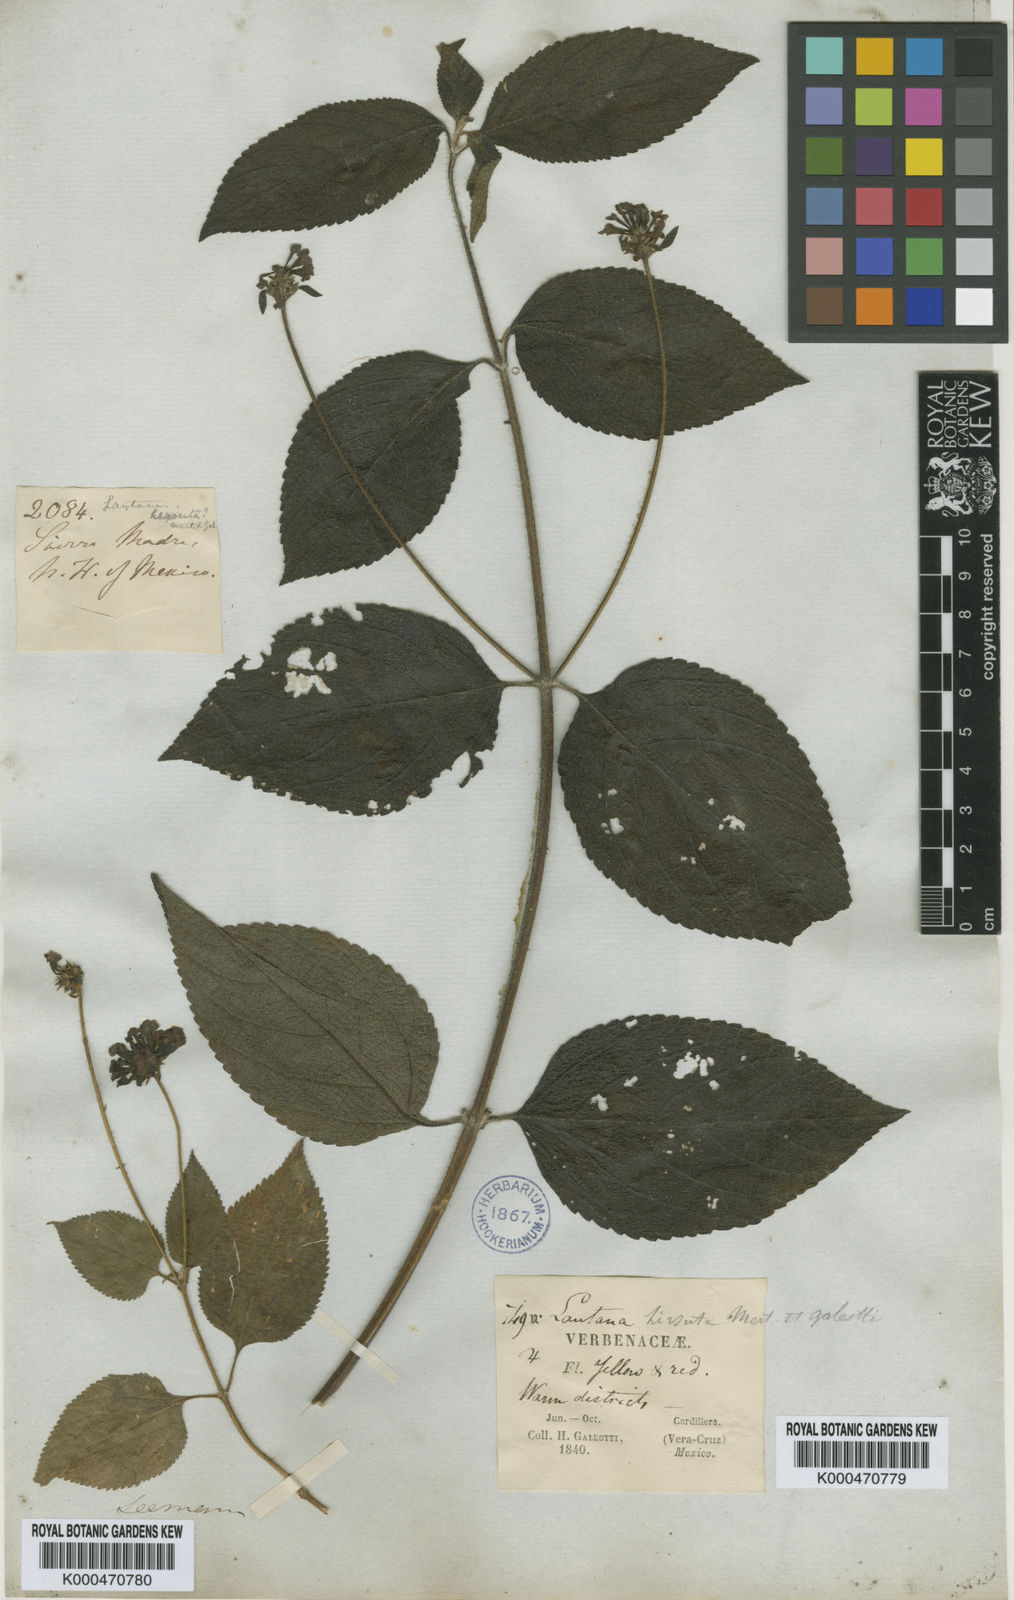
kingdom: Plantae
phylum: Tracheophyta
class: Magnoliopsida
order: Lamiales
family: Verbenaceae
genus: Lantana
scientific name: Lantana horrida
